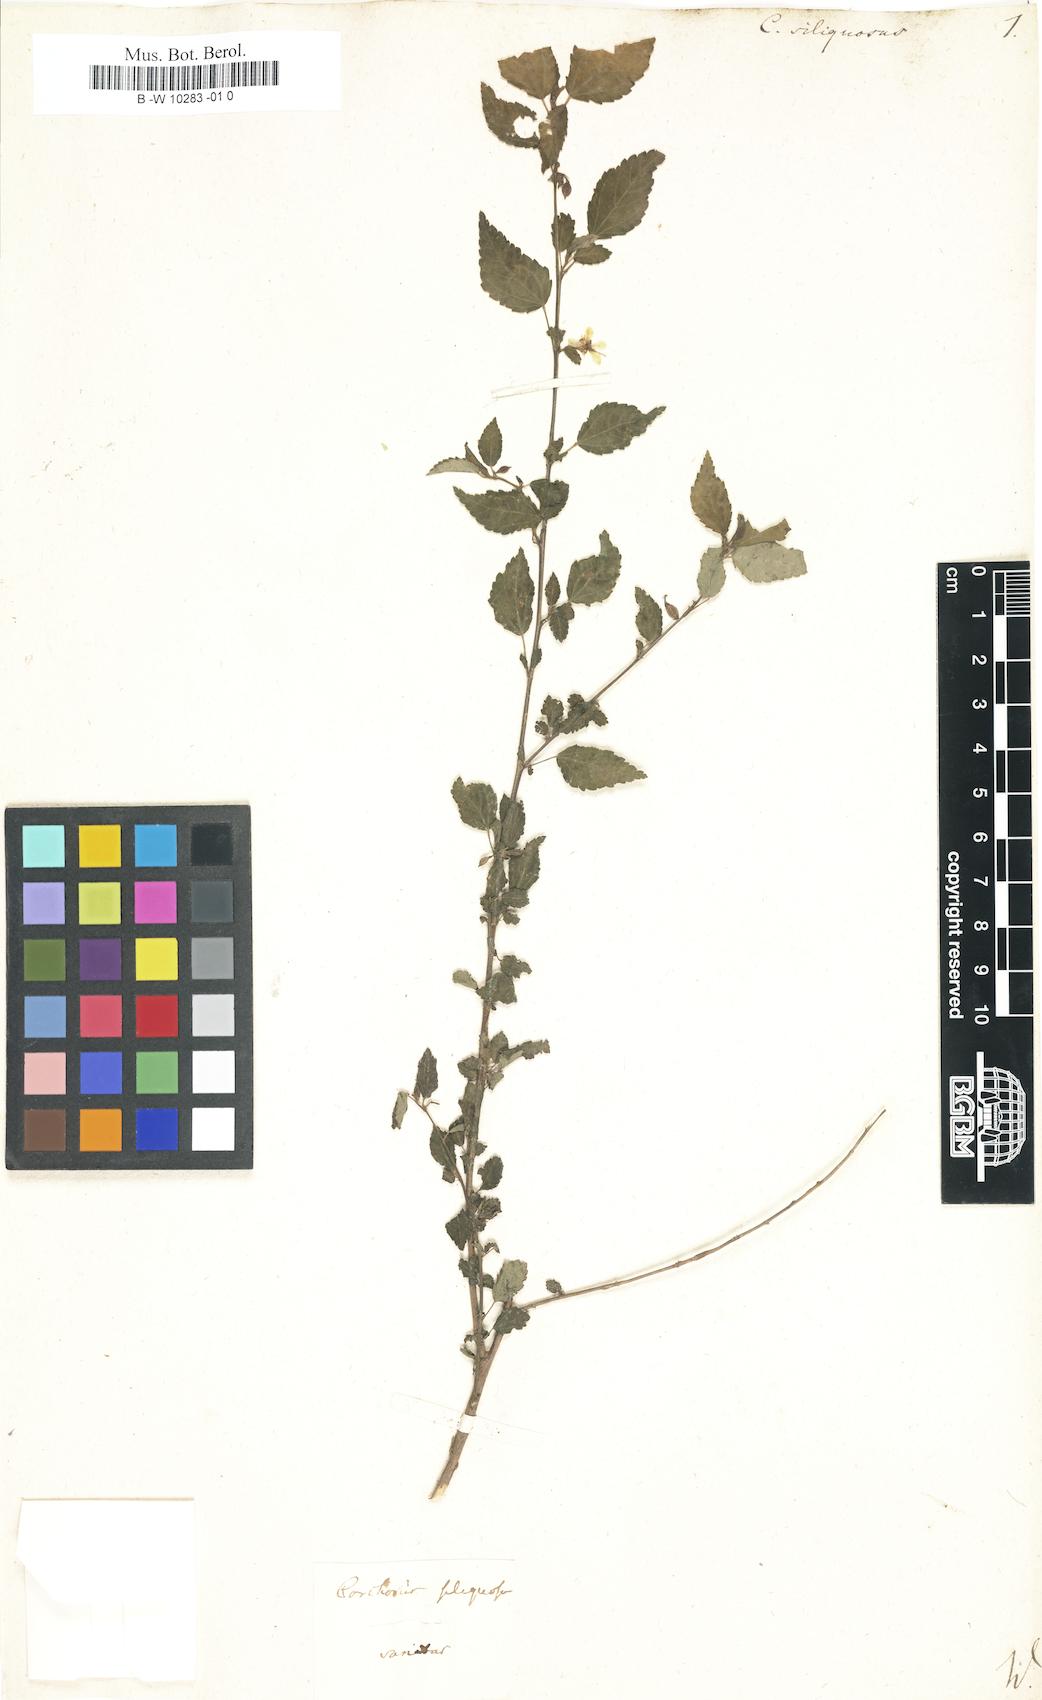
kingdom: Plantae
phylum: Tracheophyta
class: Magnoliopsida
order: Malvales
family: Malvaceae
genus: Corchorus
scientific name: Corchorus siliquosus
